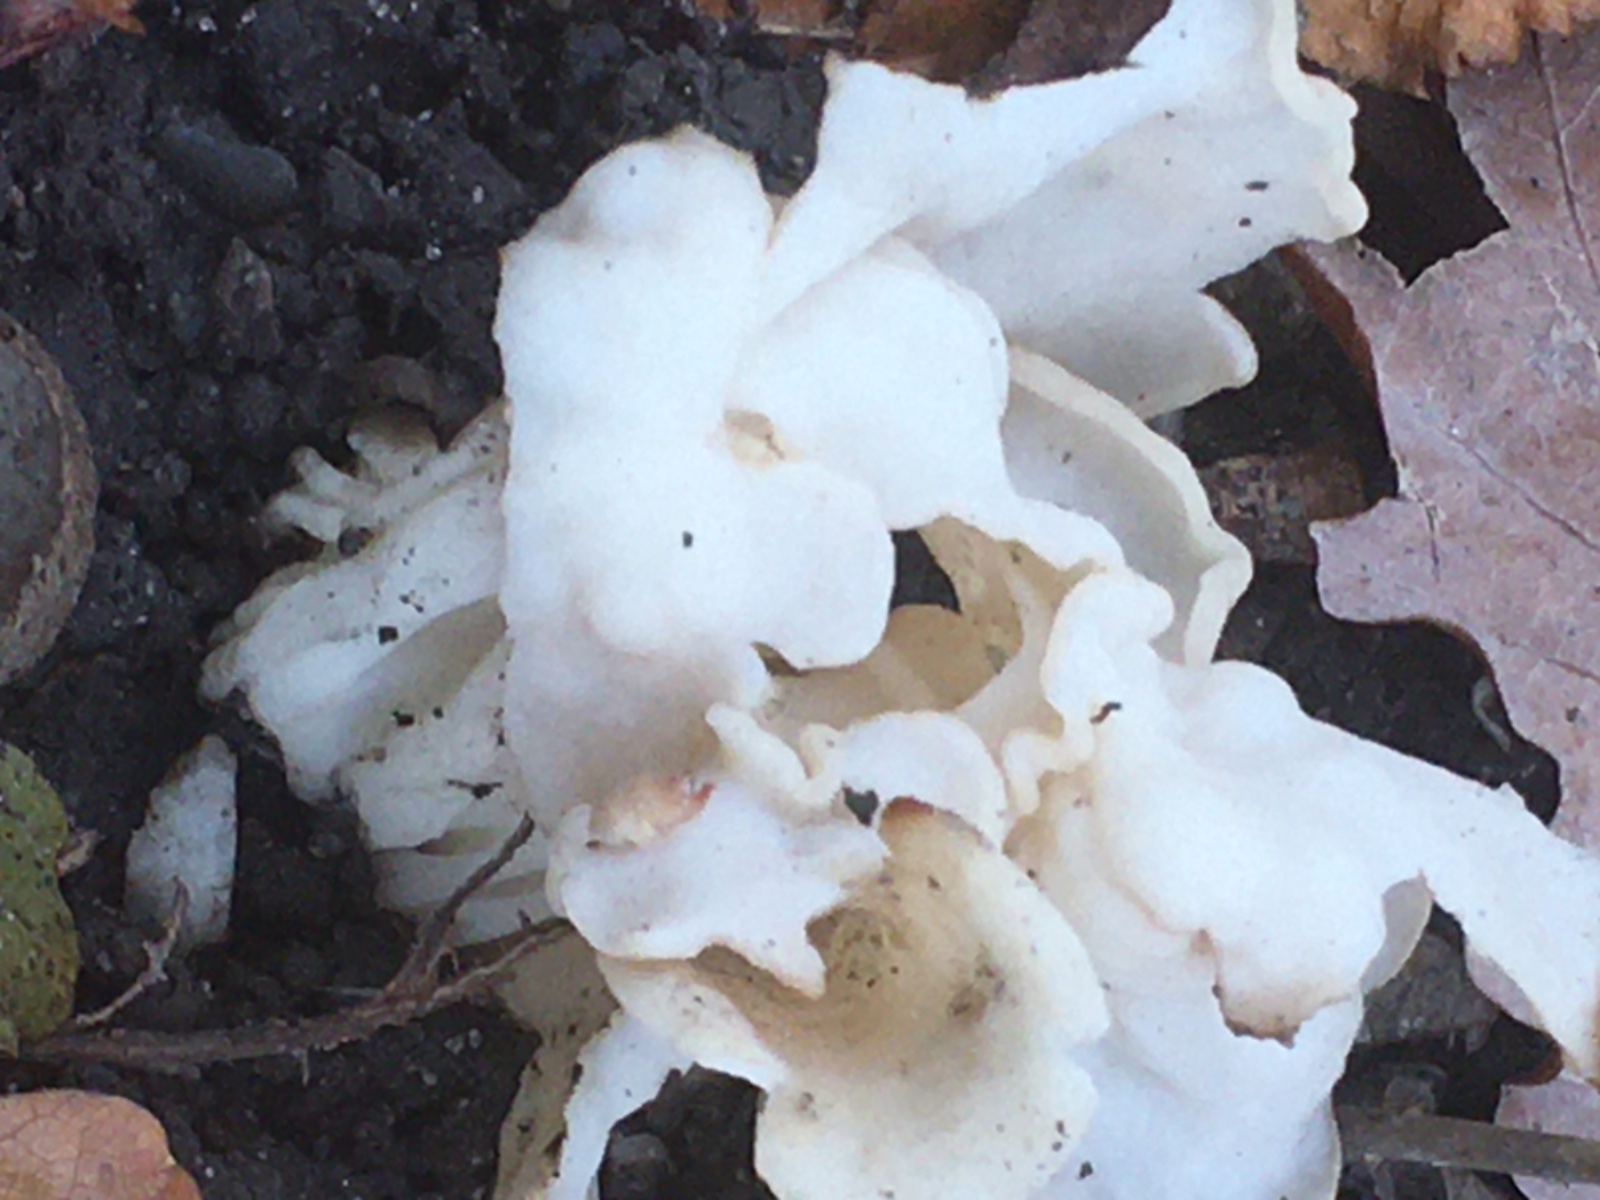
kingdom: Fungi
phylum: Ascomycota
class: Pezizomycetes
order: Pezizales
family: Helvellaceae
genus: Helvella
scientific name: Helvella crispa
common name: kruset foldhat
